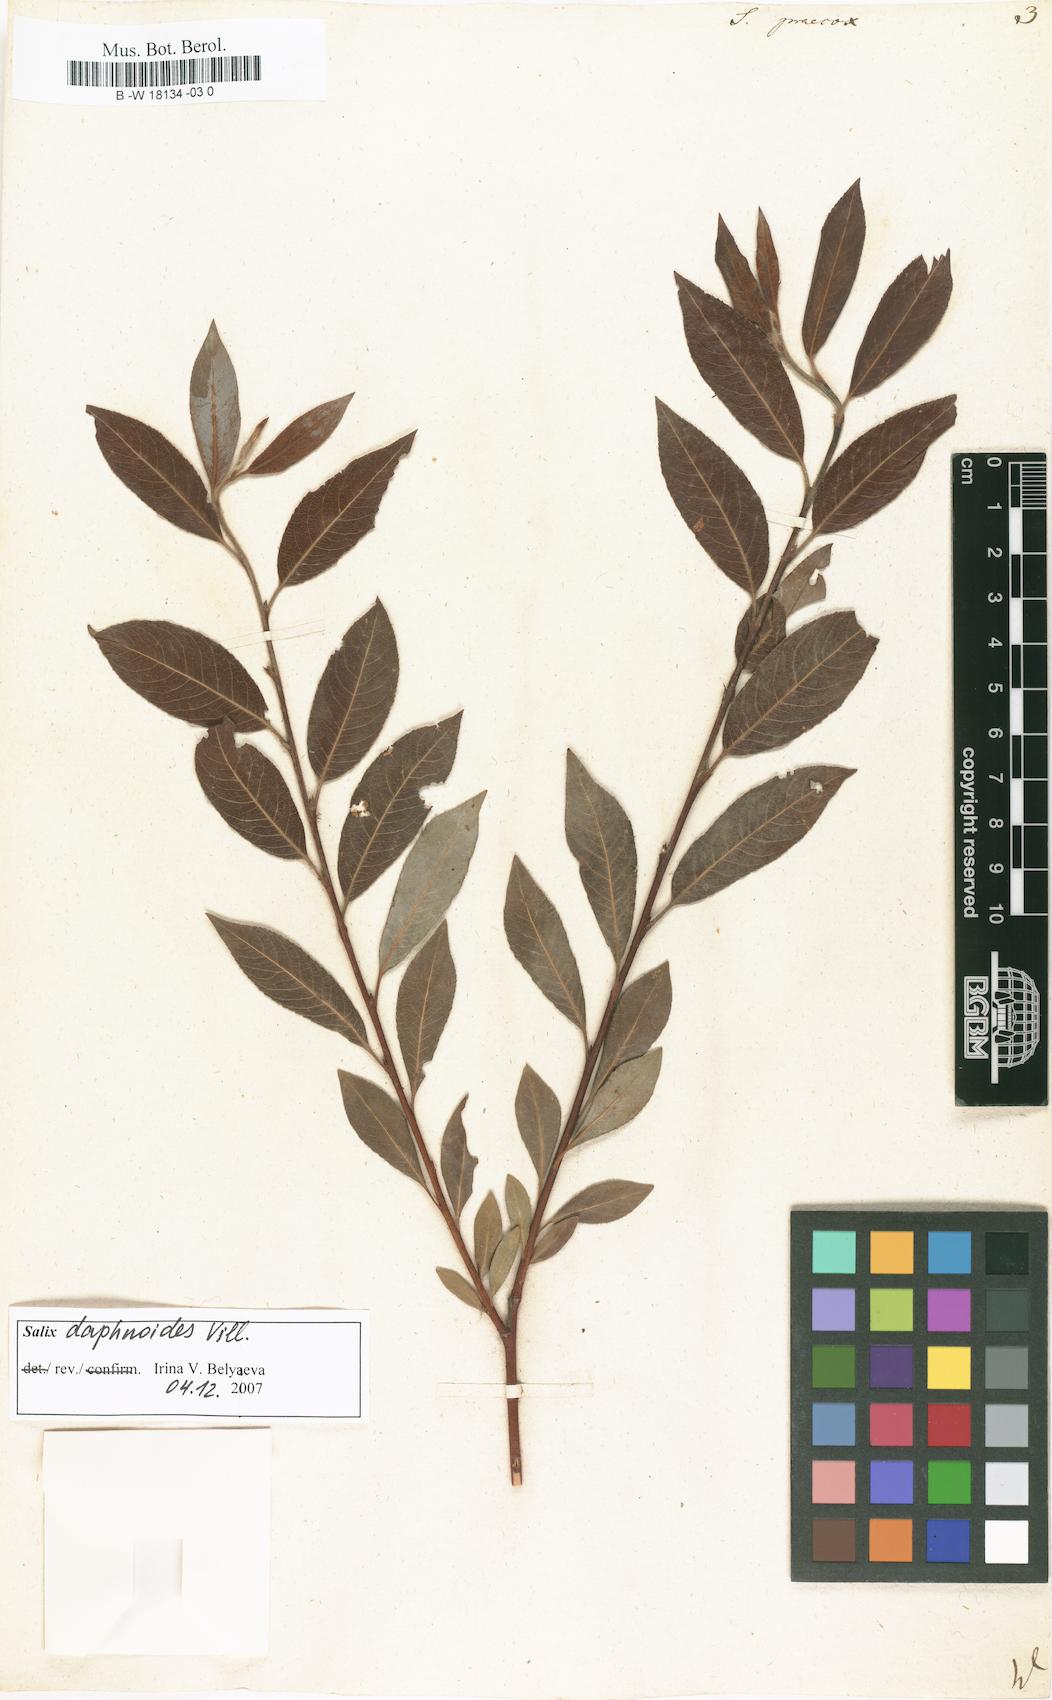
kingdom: Plantae
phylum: Tracheophyta
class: Magnoliopsida
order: Malpighiales
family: Salicaceae
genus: Salix
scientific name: Salix caprea
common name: Goat willow
